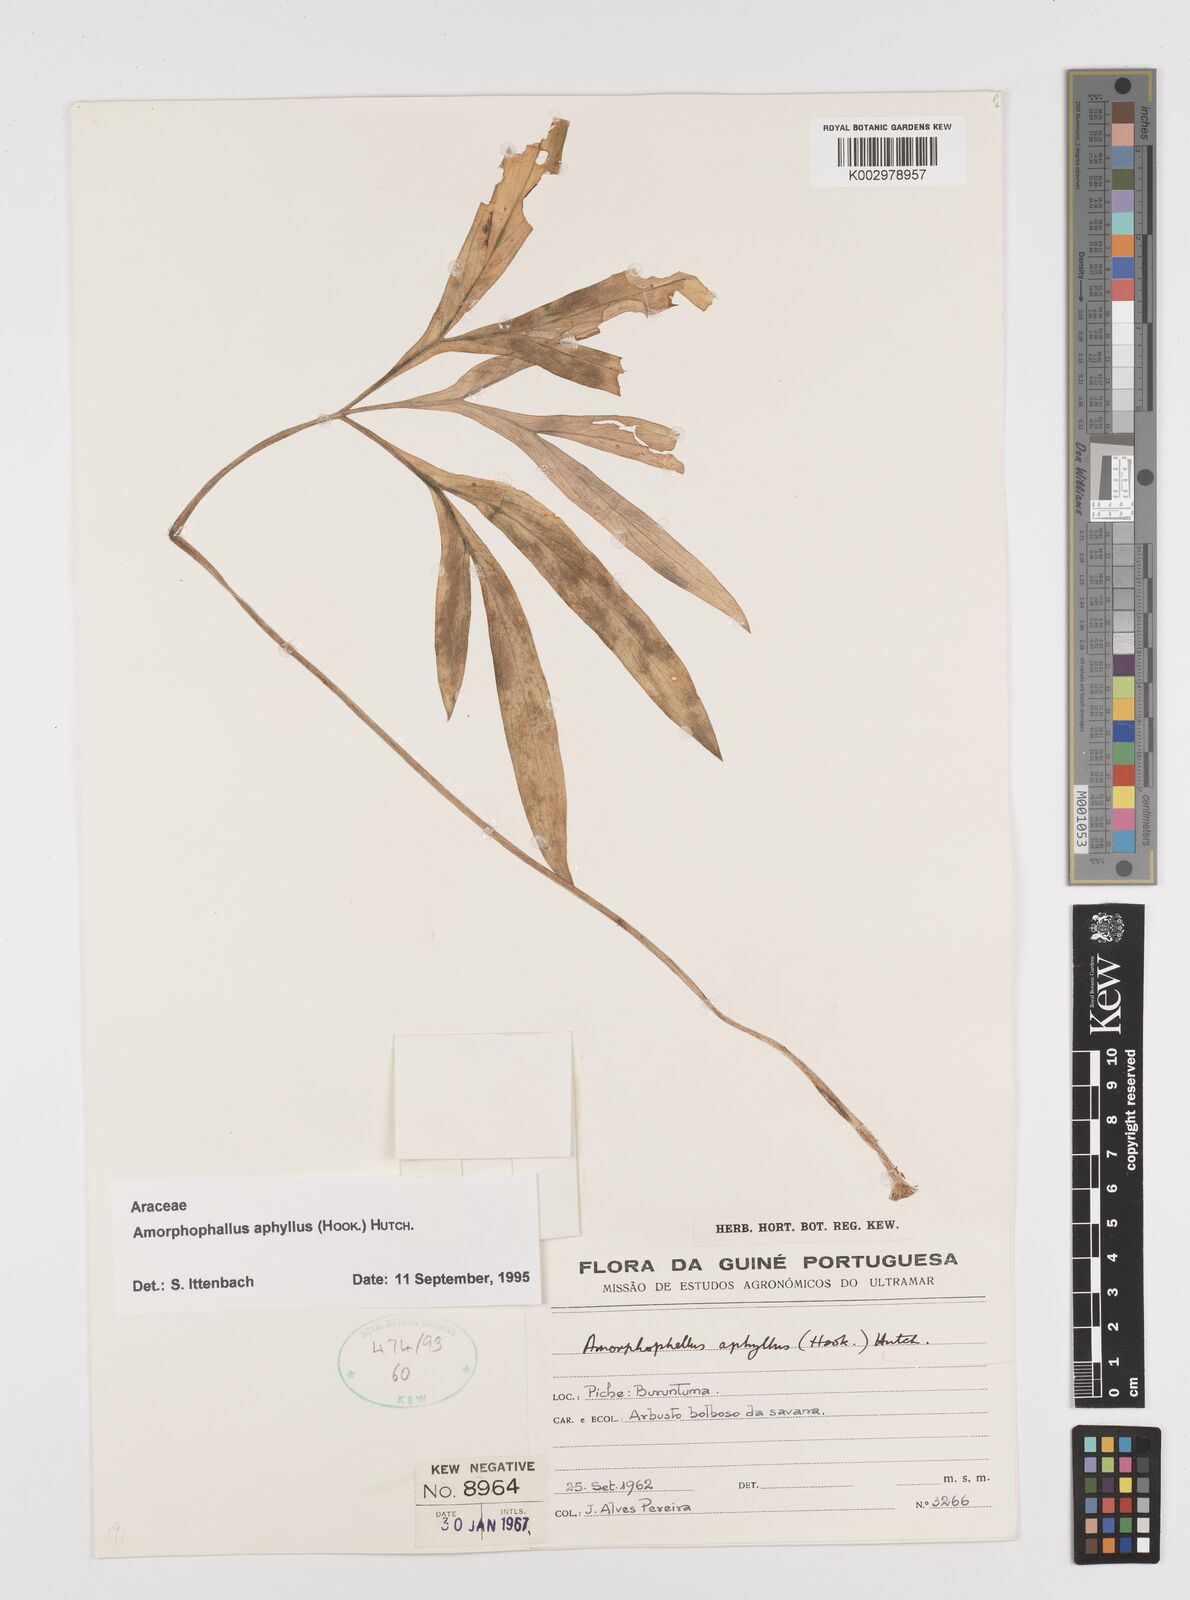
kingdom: Plantae
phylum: Tracheophyta
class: Liliopsida
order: Alismatales
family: Araceae
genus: Amorphophallus
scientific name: Amorphophallus aphyllus
